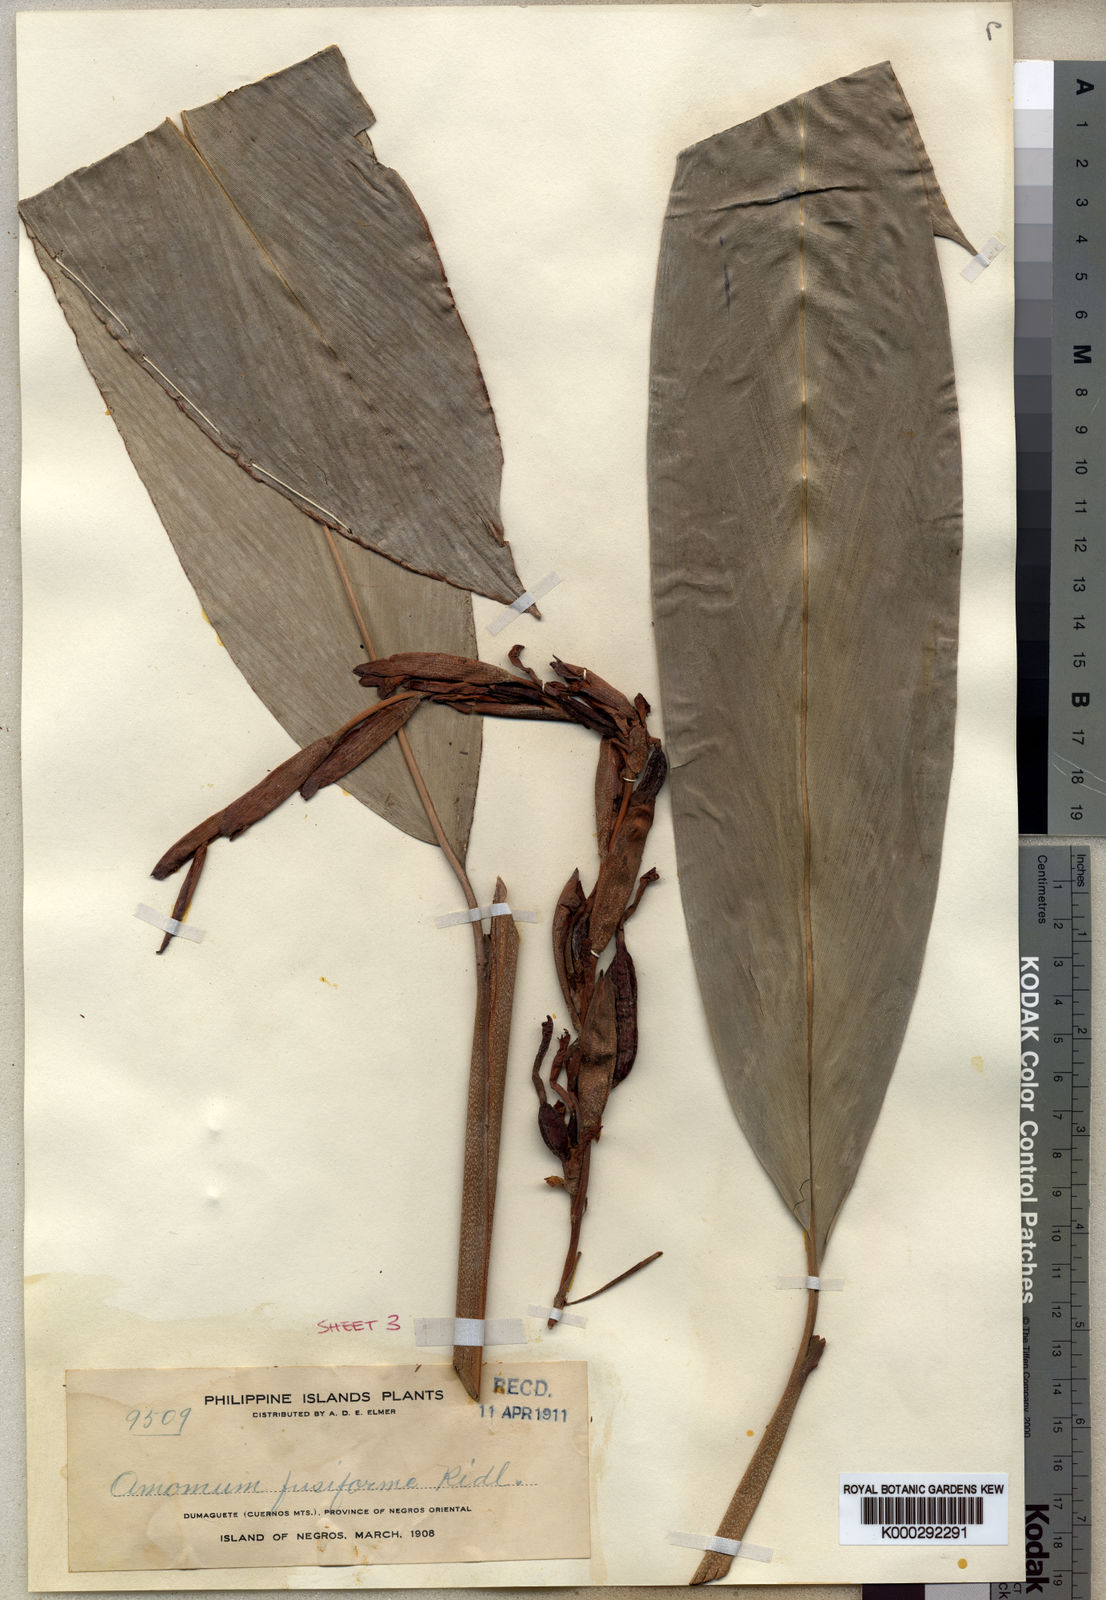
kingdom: Plantae
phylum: Tracheophyta
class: Liliopsida
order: Zingiberales
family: Zingiberaceae
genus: Geocharis
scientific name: Geocharis fusiformis
